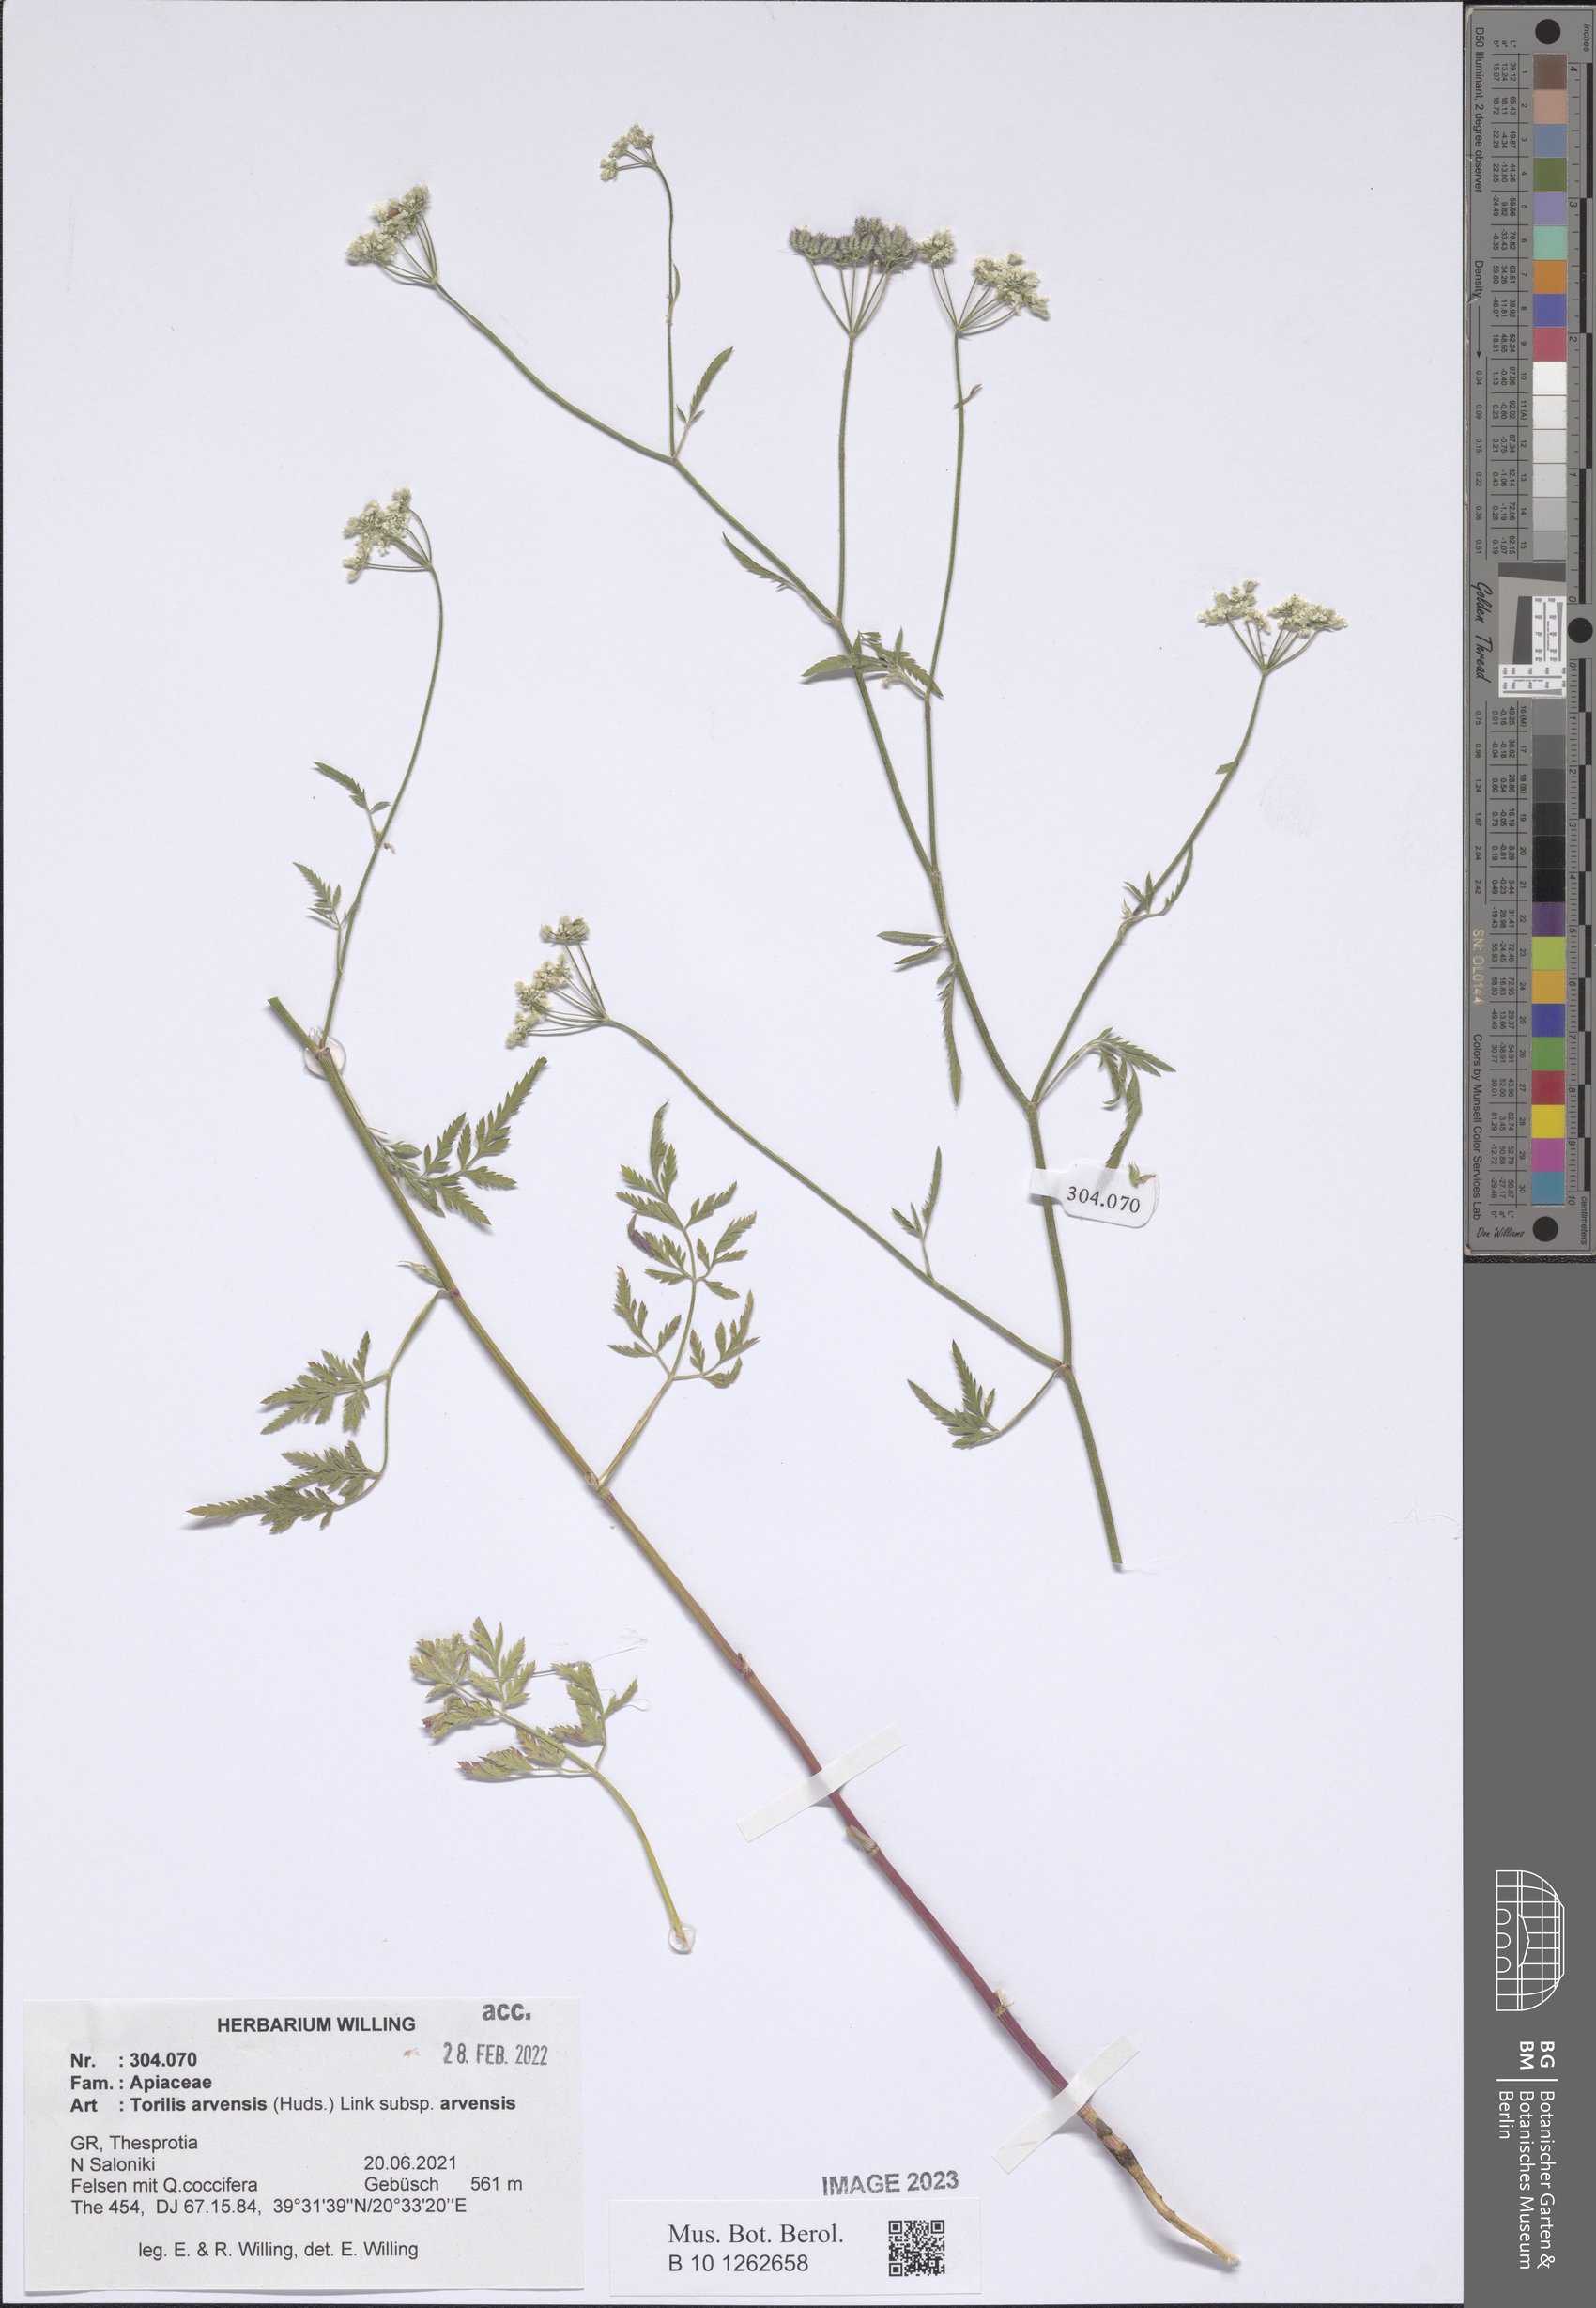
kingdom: Plantae
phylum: Tracheophyta
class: Magnoliopsida
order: Apiales
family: Apiaceae
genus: Torilis
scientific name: Torilis arvensis
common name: Spreading hedge-parsley
